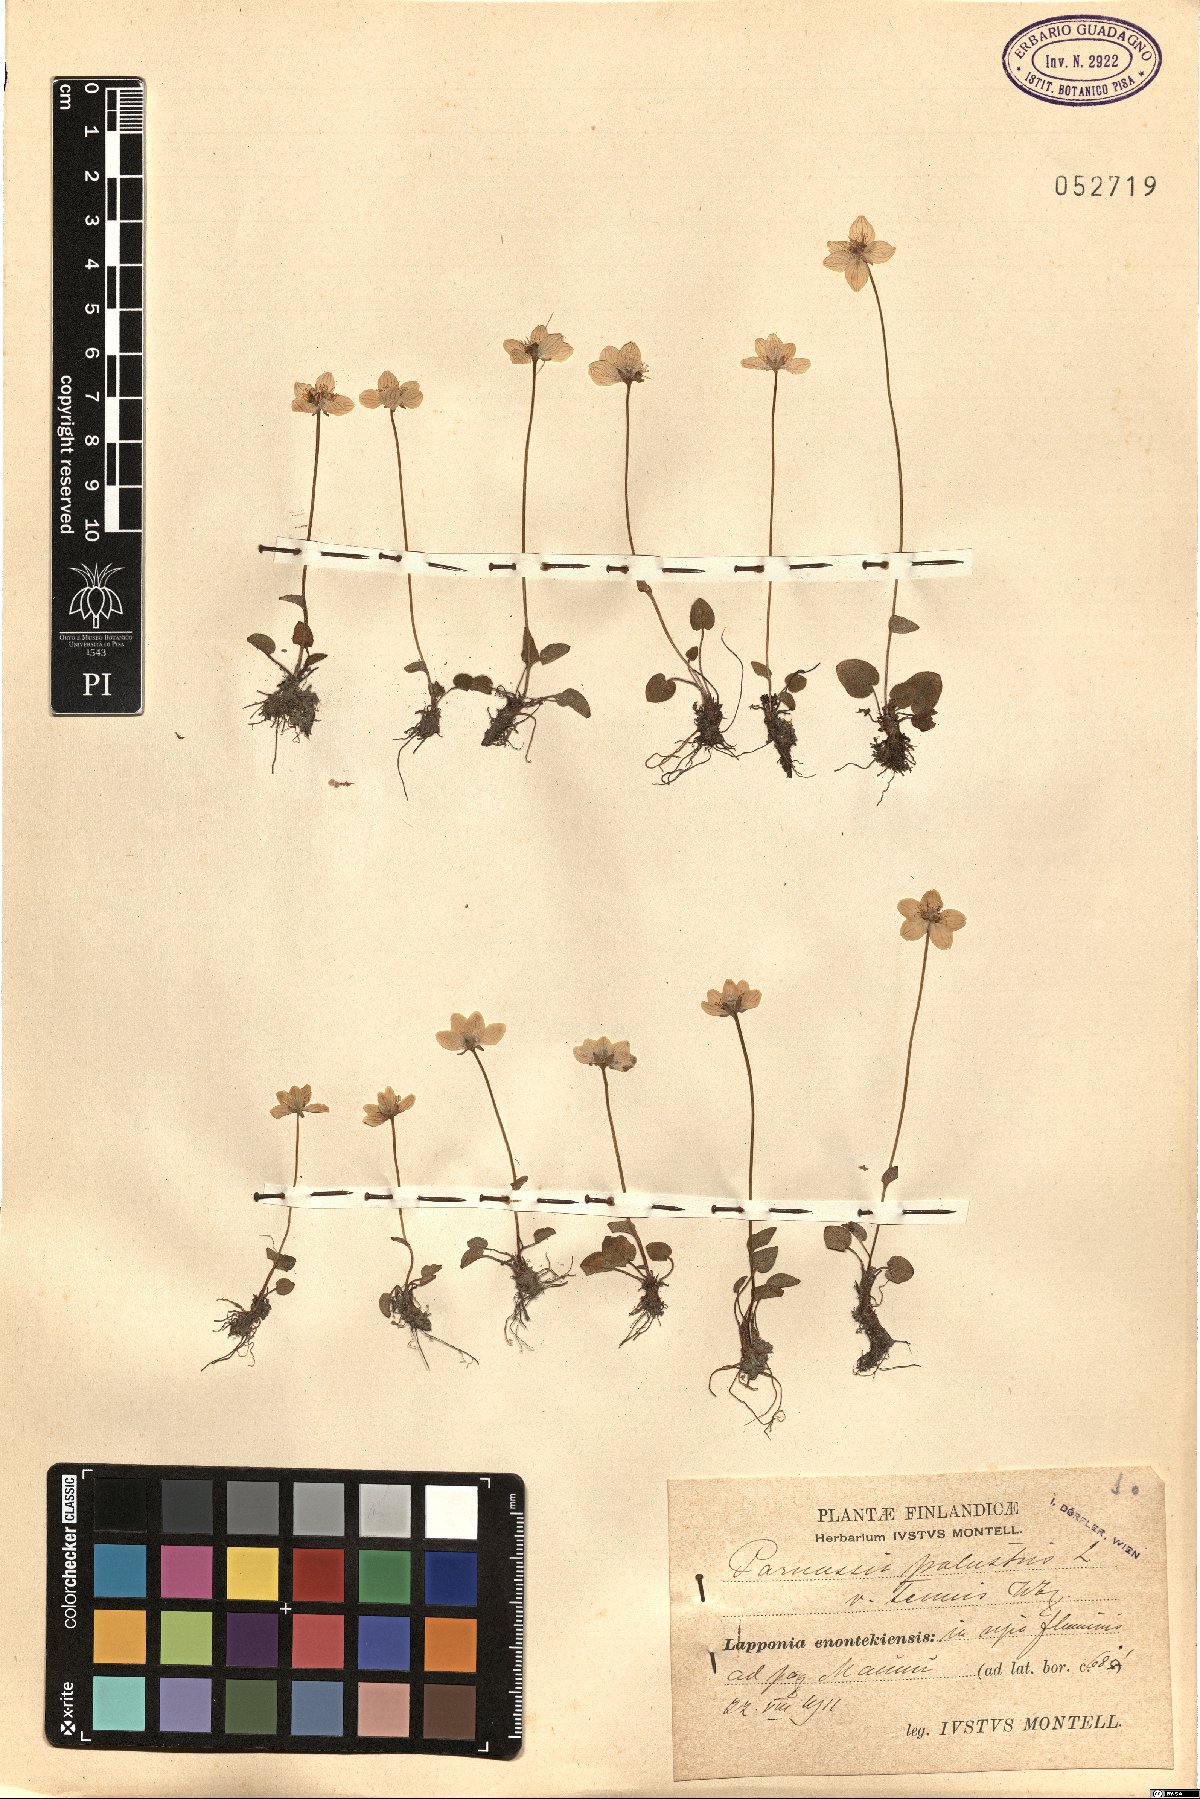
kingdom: Plantae
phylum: Tracheophyta
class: Magnoliopsida
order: Celastrales
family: Parnassiaceae
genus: Parnassia
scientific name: Parnassia palustris
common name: Grass-of-parnassus
